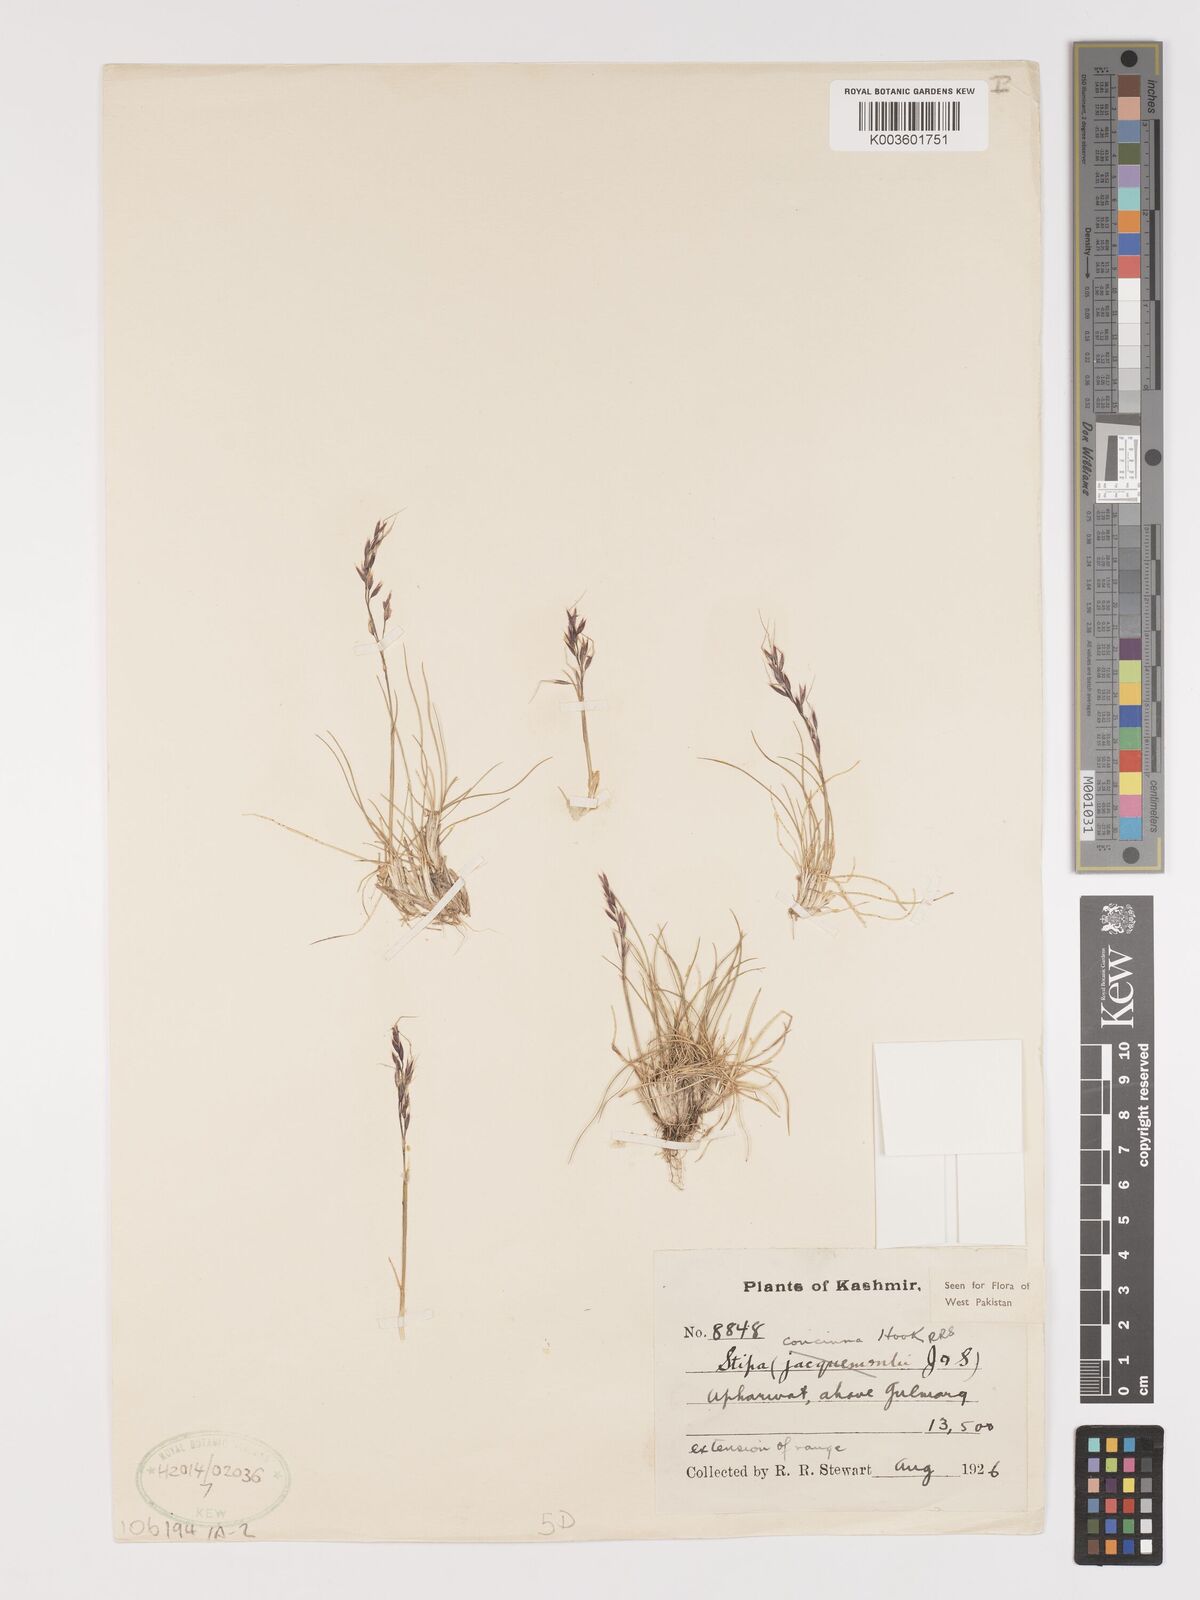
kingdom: Plantae
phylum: Tracheophyta
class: Liliopsida
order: Poales
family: Poaceae
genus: Ptilagrostis
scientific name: Ptilagrostis concinna
